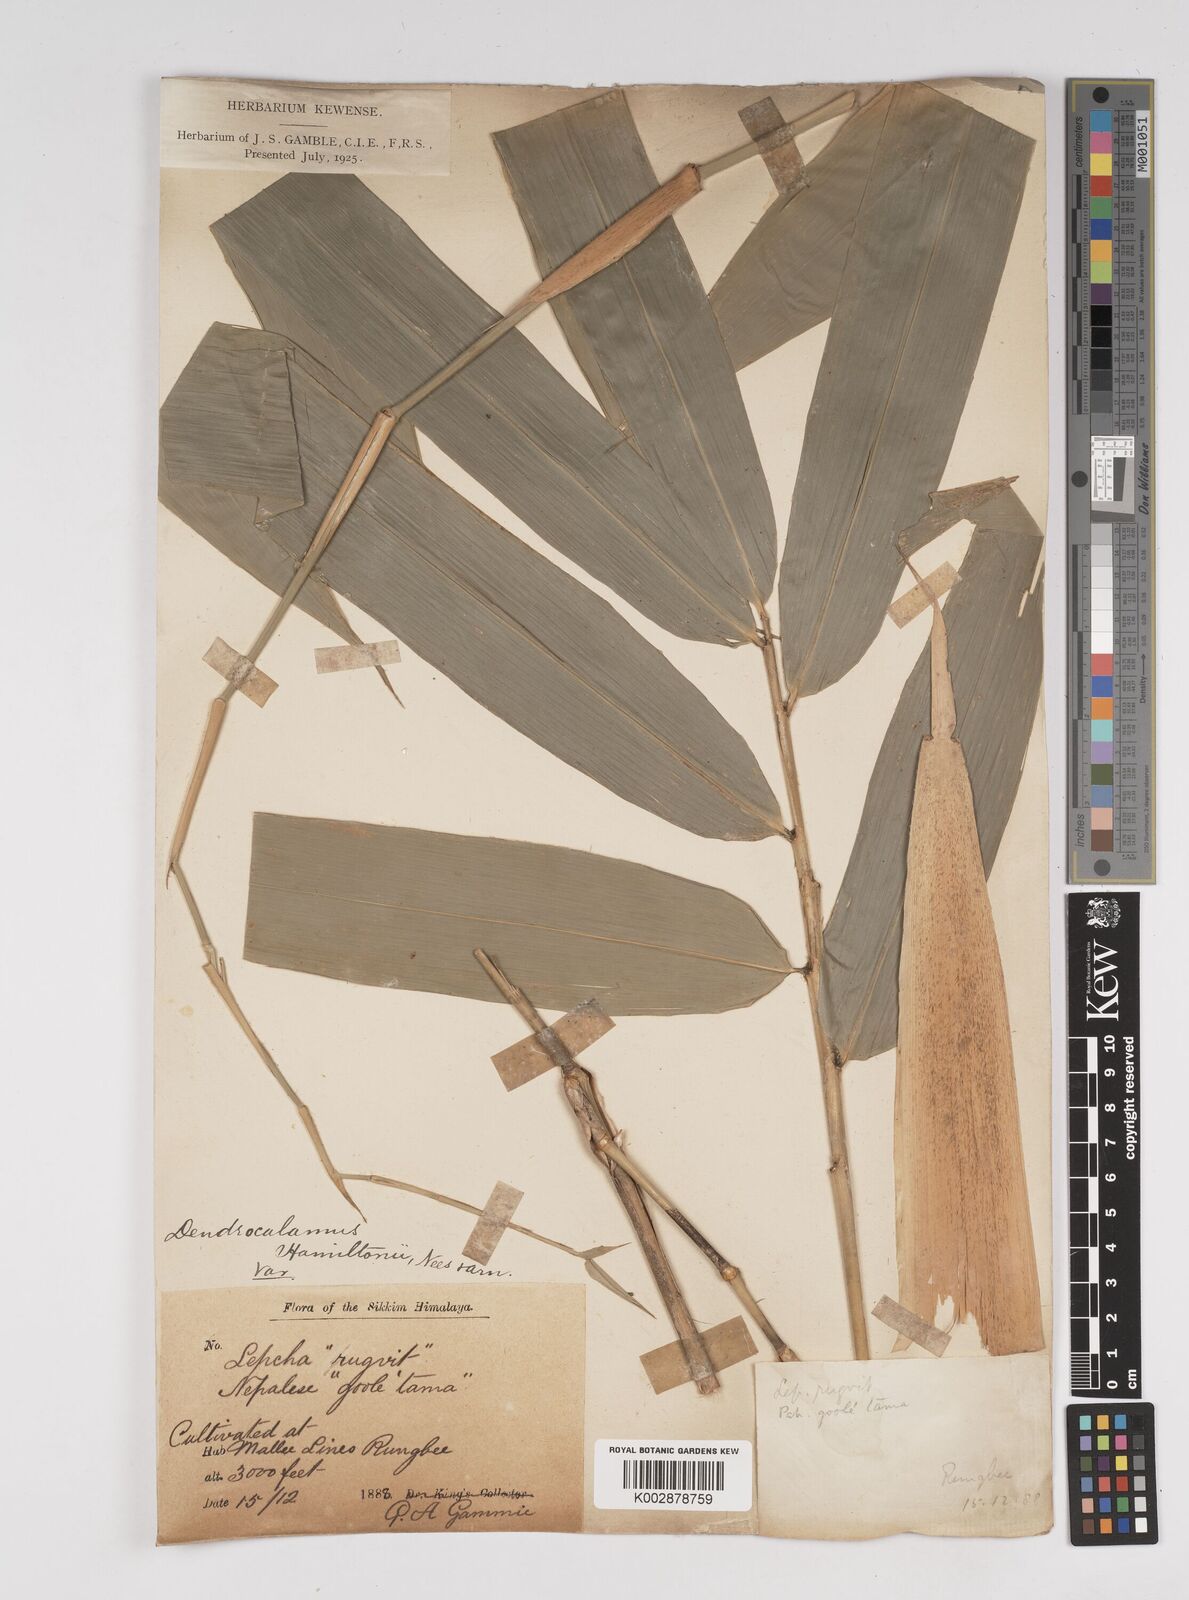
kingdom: Plantae
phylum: Tracheophyta
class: Liliopsida
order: Poales
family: Poaceae
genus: Dendrocalamus
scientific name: Dendrocalamus hamiltonii
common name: Tama bamboo
